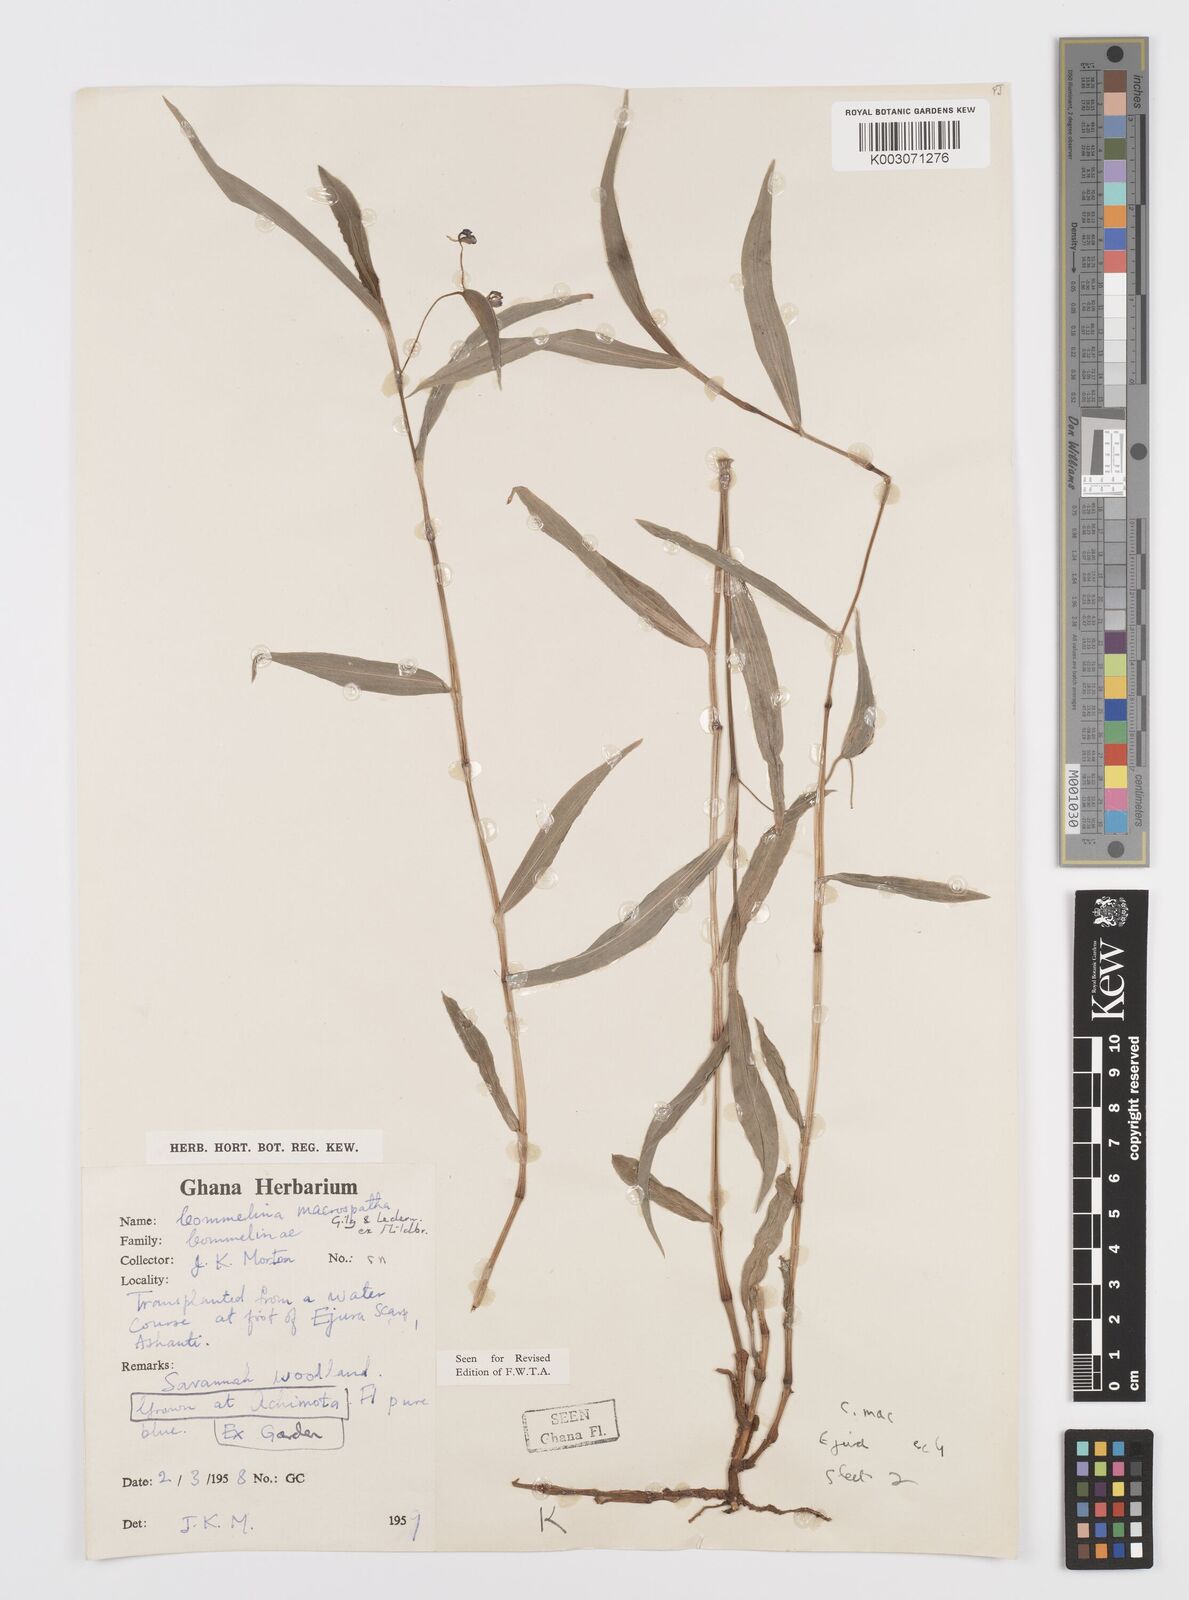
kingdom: Plantae
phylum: Tracheophyta
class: Liliopsida
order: Commelinales
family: Commelinaceae
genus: Commelina
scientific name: Commelina macrospatha
